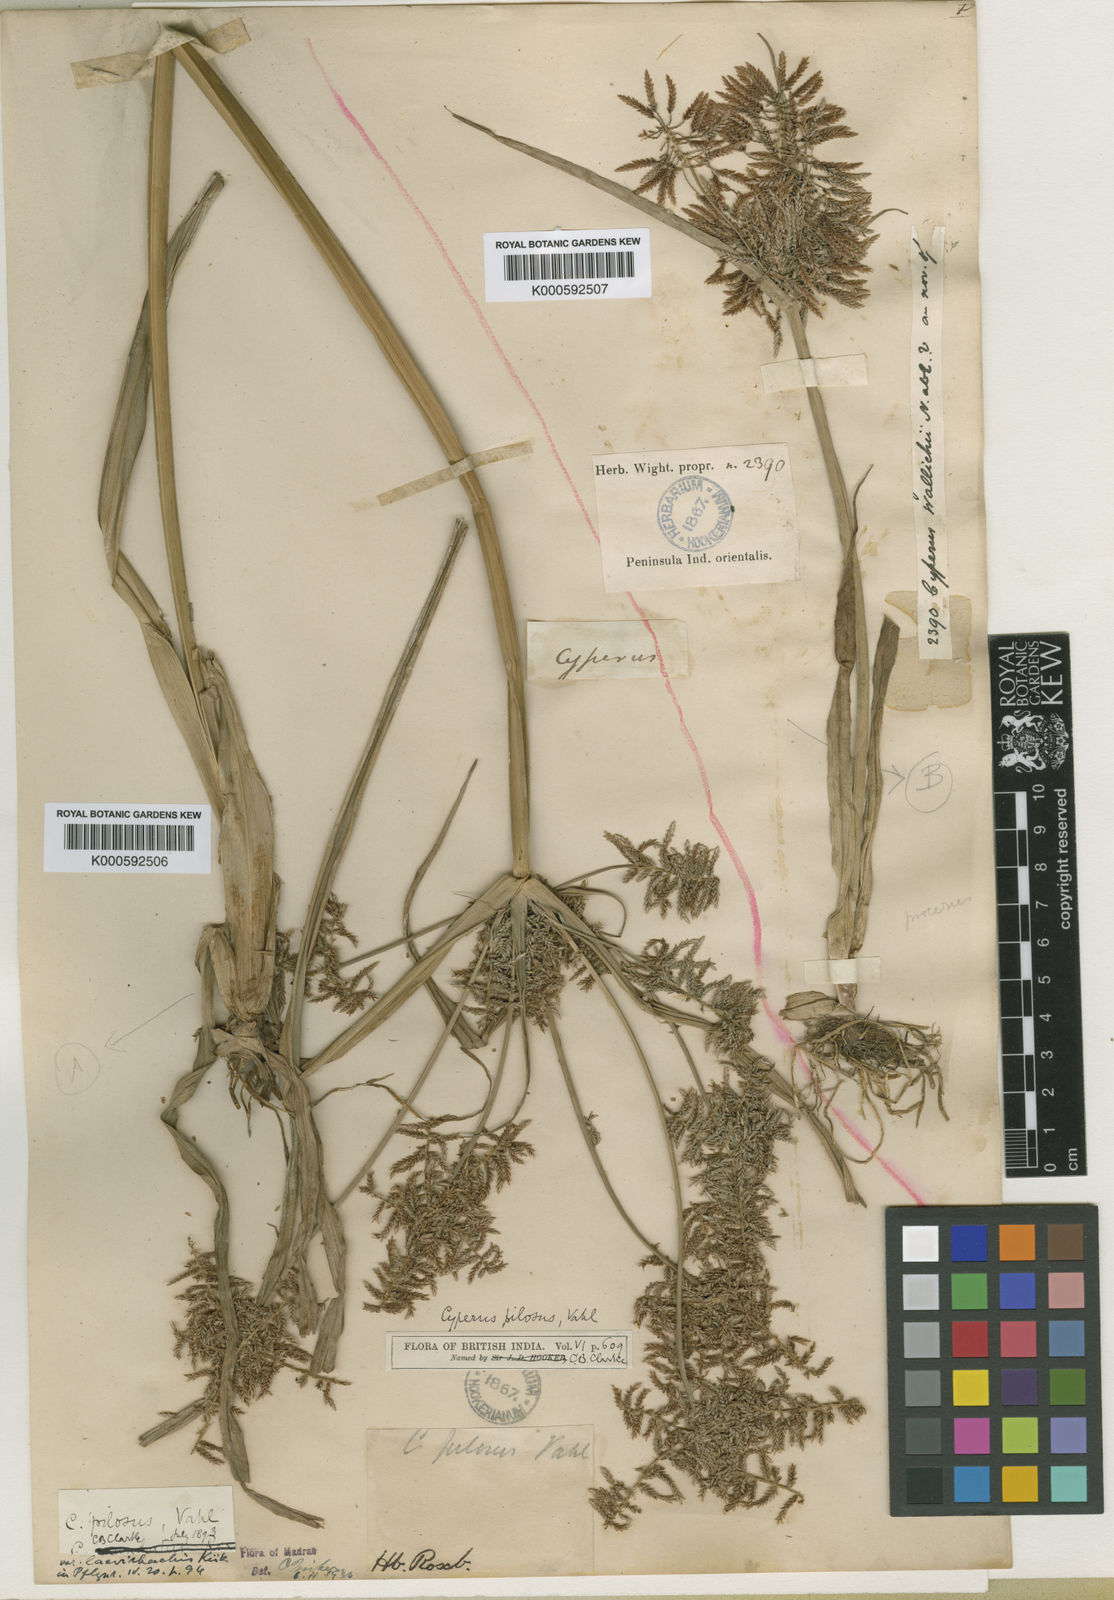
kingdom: Plantae
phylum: Tracheophyta
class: Liliopsida
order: Poales
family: Cyperaceae
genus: Cyperus
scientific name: Cyperus pilosus
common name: Fuzzy flatsedge
